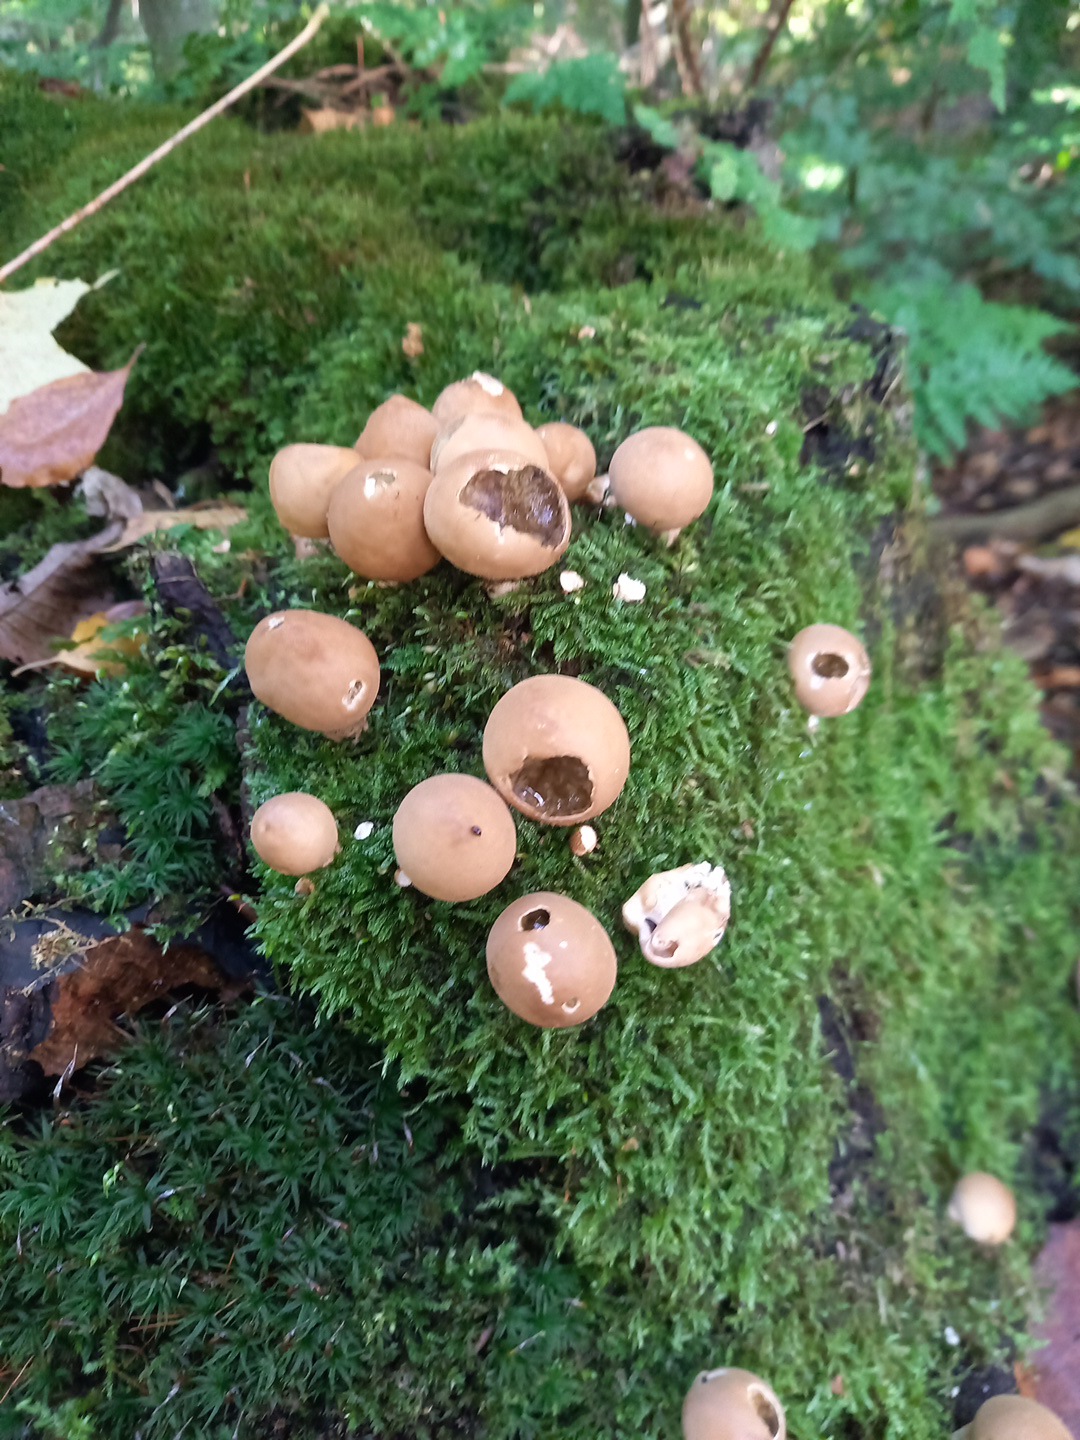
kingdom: Fungi
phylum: Basidiomycota
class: Agaricomycetes
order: Agaricales
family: Lycoperdaceae
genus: Apioperdon
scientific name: Apioperdon pyriforme
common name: pære-støvbold
